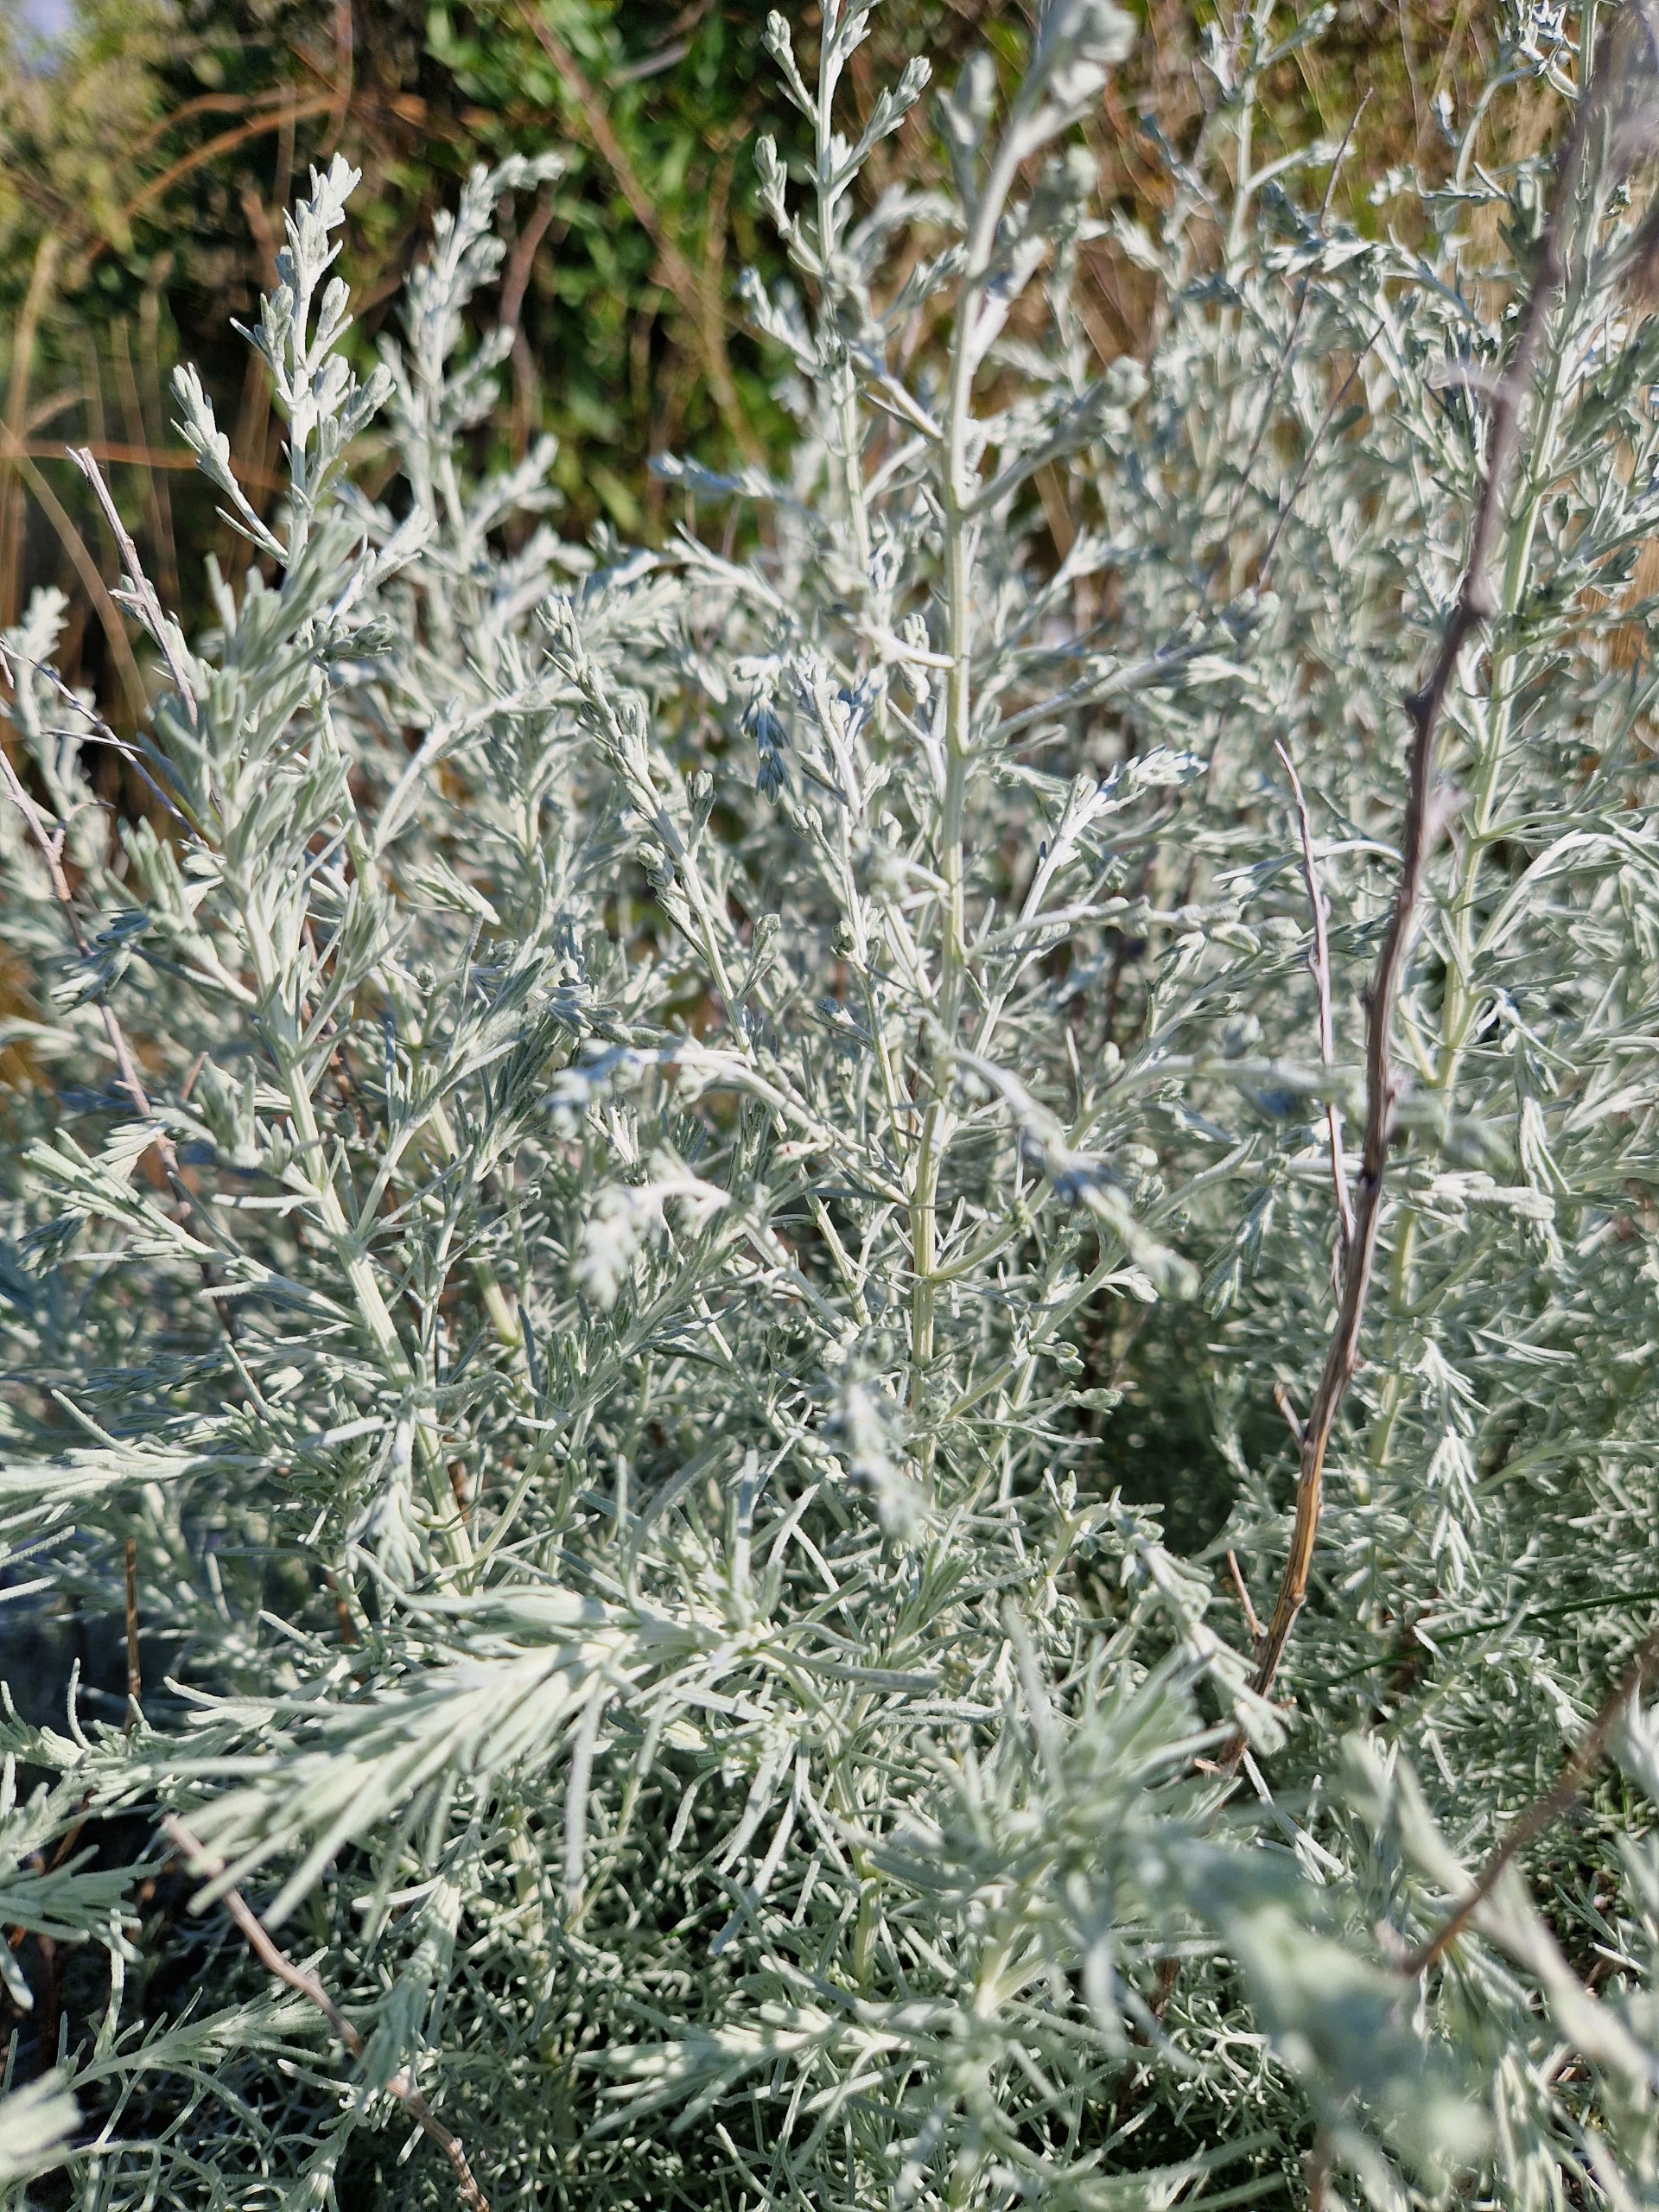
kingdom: Plantae
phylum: Tracheophyta
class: Magnoliopsida
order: Asterales
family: Asteraceae
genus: Artemisia
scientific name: Artemisia maritima
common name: Strandmalurt
